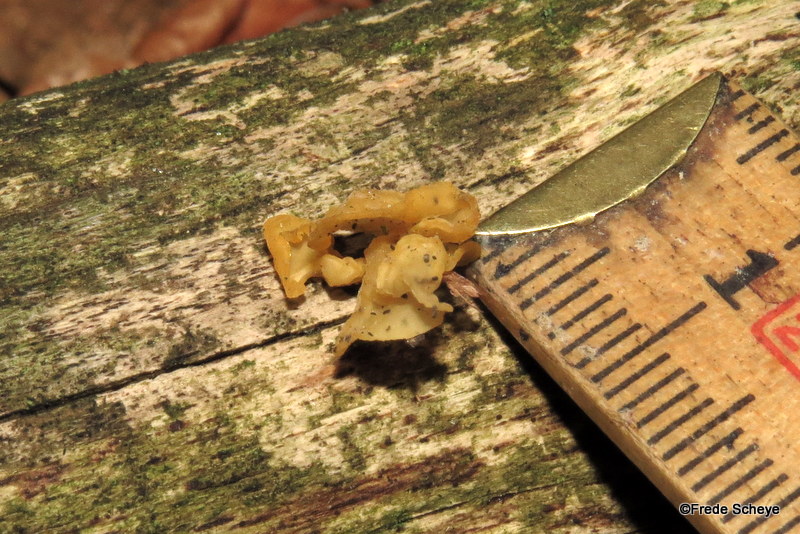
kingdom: Fungi
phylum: Basidiomycota
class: Tremellomycetes
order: Tremellales
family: Tremellaceae
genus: Tremella
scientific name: Tremella mesenterica
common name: gul bævresvamp
